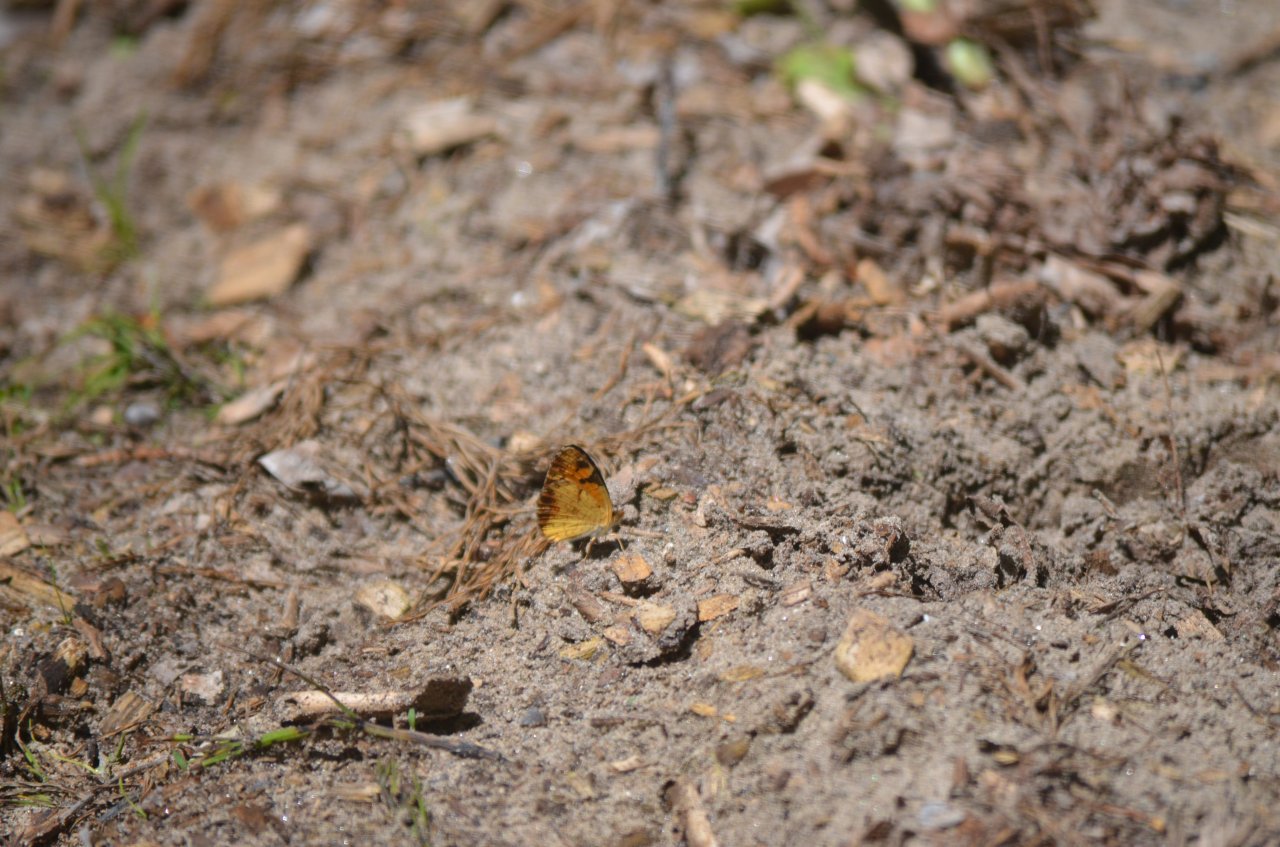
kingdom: Animalia
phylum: Arthropoda
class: Insecta
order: Lepidoptera
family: Nymphalidae
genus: Phyciodes
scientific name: Phyciodes tharos
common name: Northern Crescent
